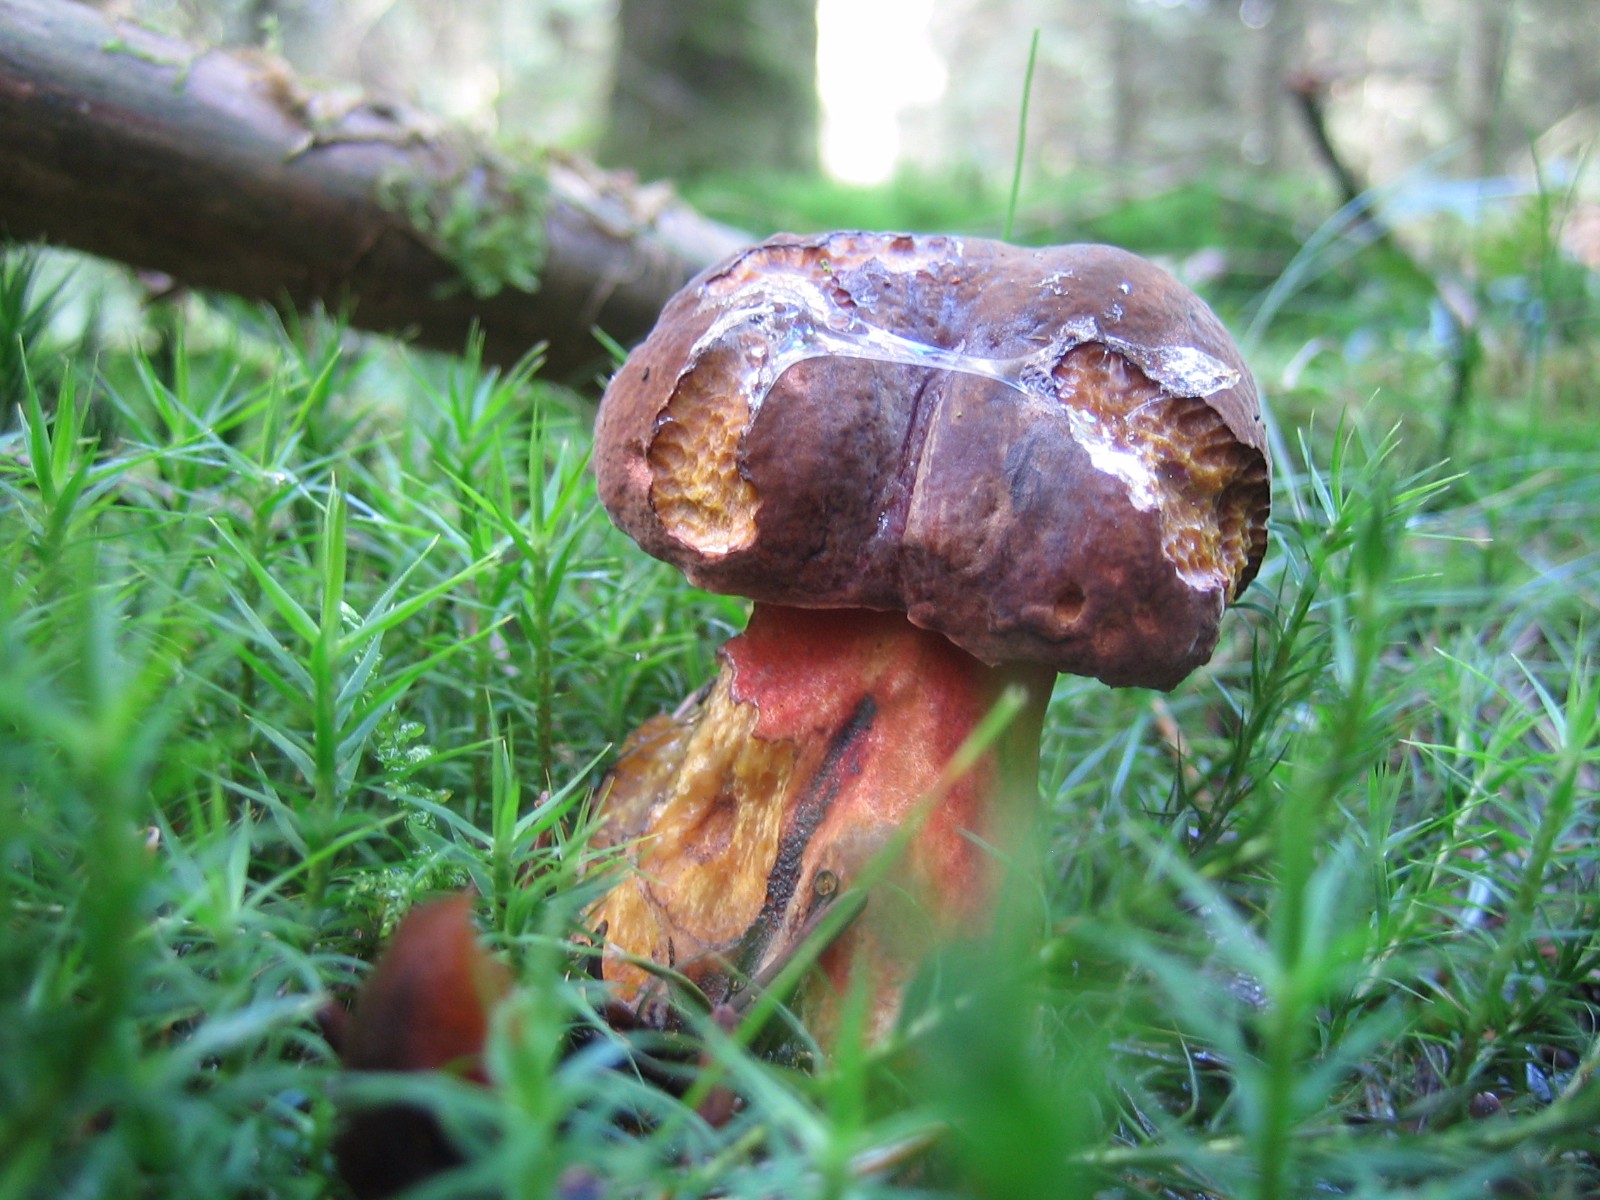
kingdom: Fungi
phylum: Basidiomycota
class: Agaricomycetes
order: Boletales
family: Boletaceae
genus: Neoboletus
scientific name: Neoboletus erythropus
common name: punktstokket indigorørhat
